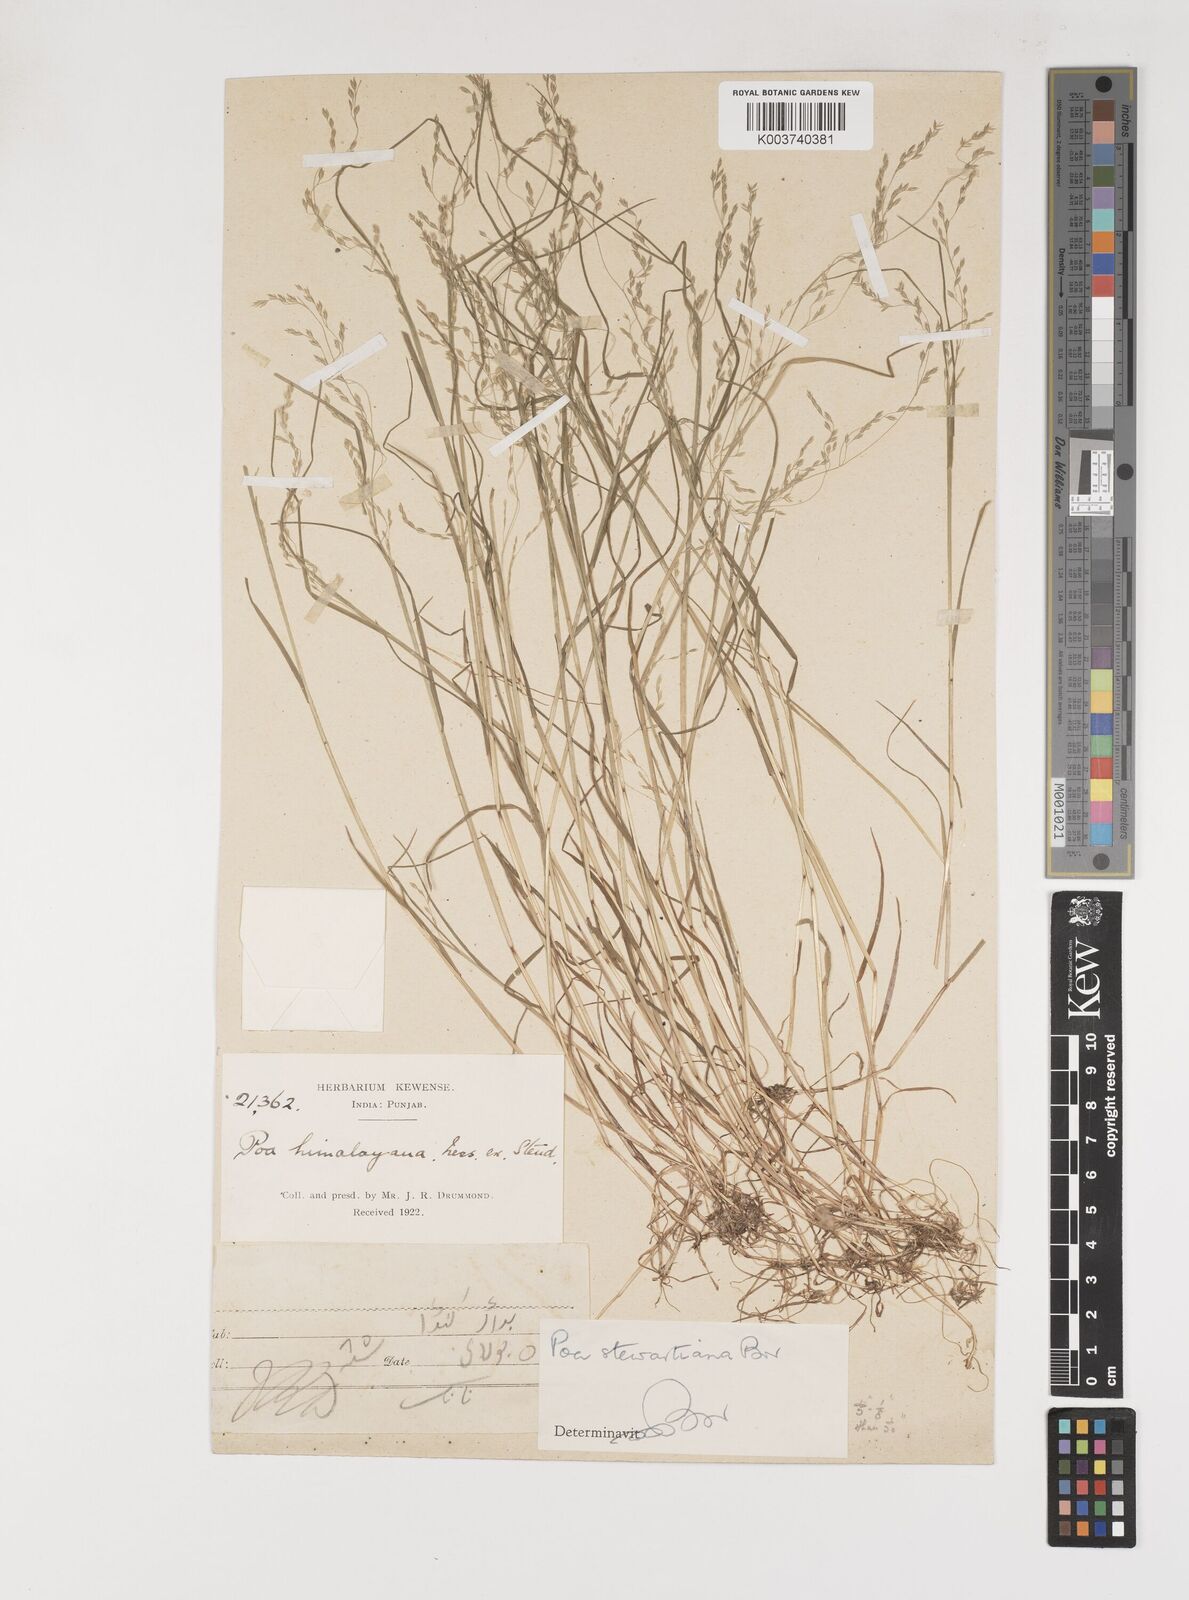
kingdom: Plantae
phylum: Tracheophyta
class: Liliopsida
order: Poales
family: Poaceae
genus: Poa
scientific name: Poa stewartiana
